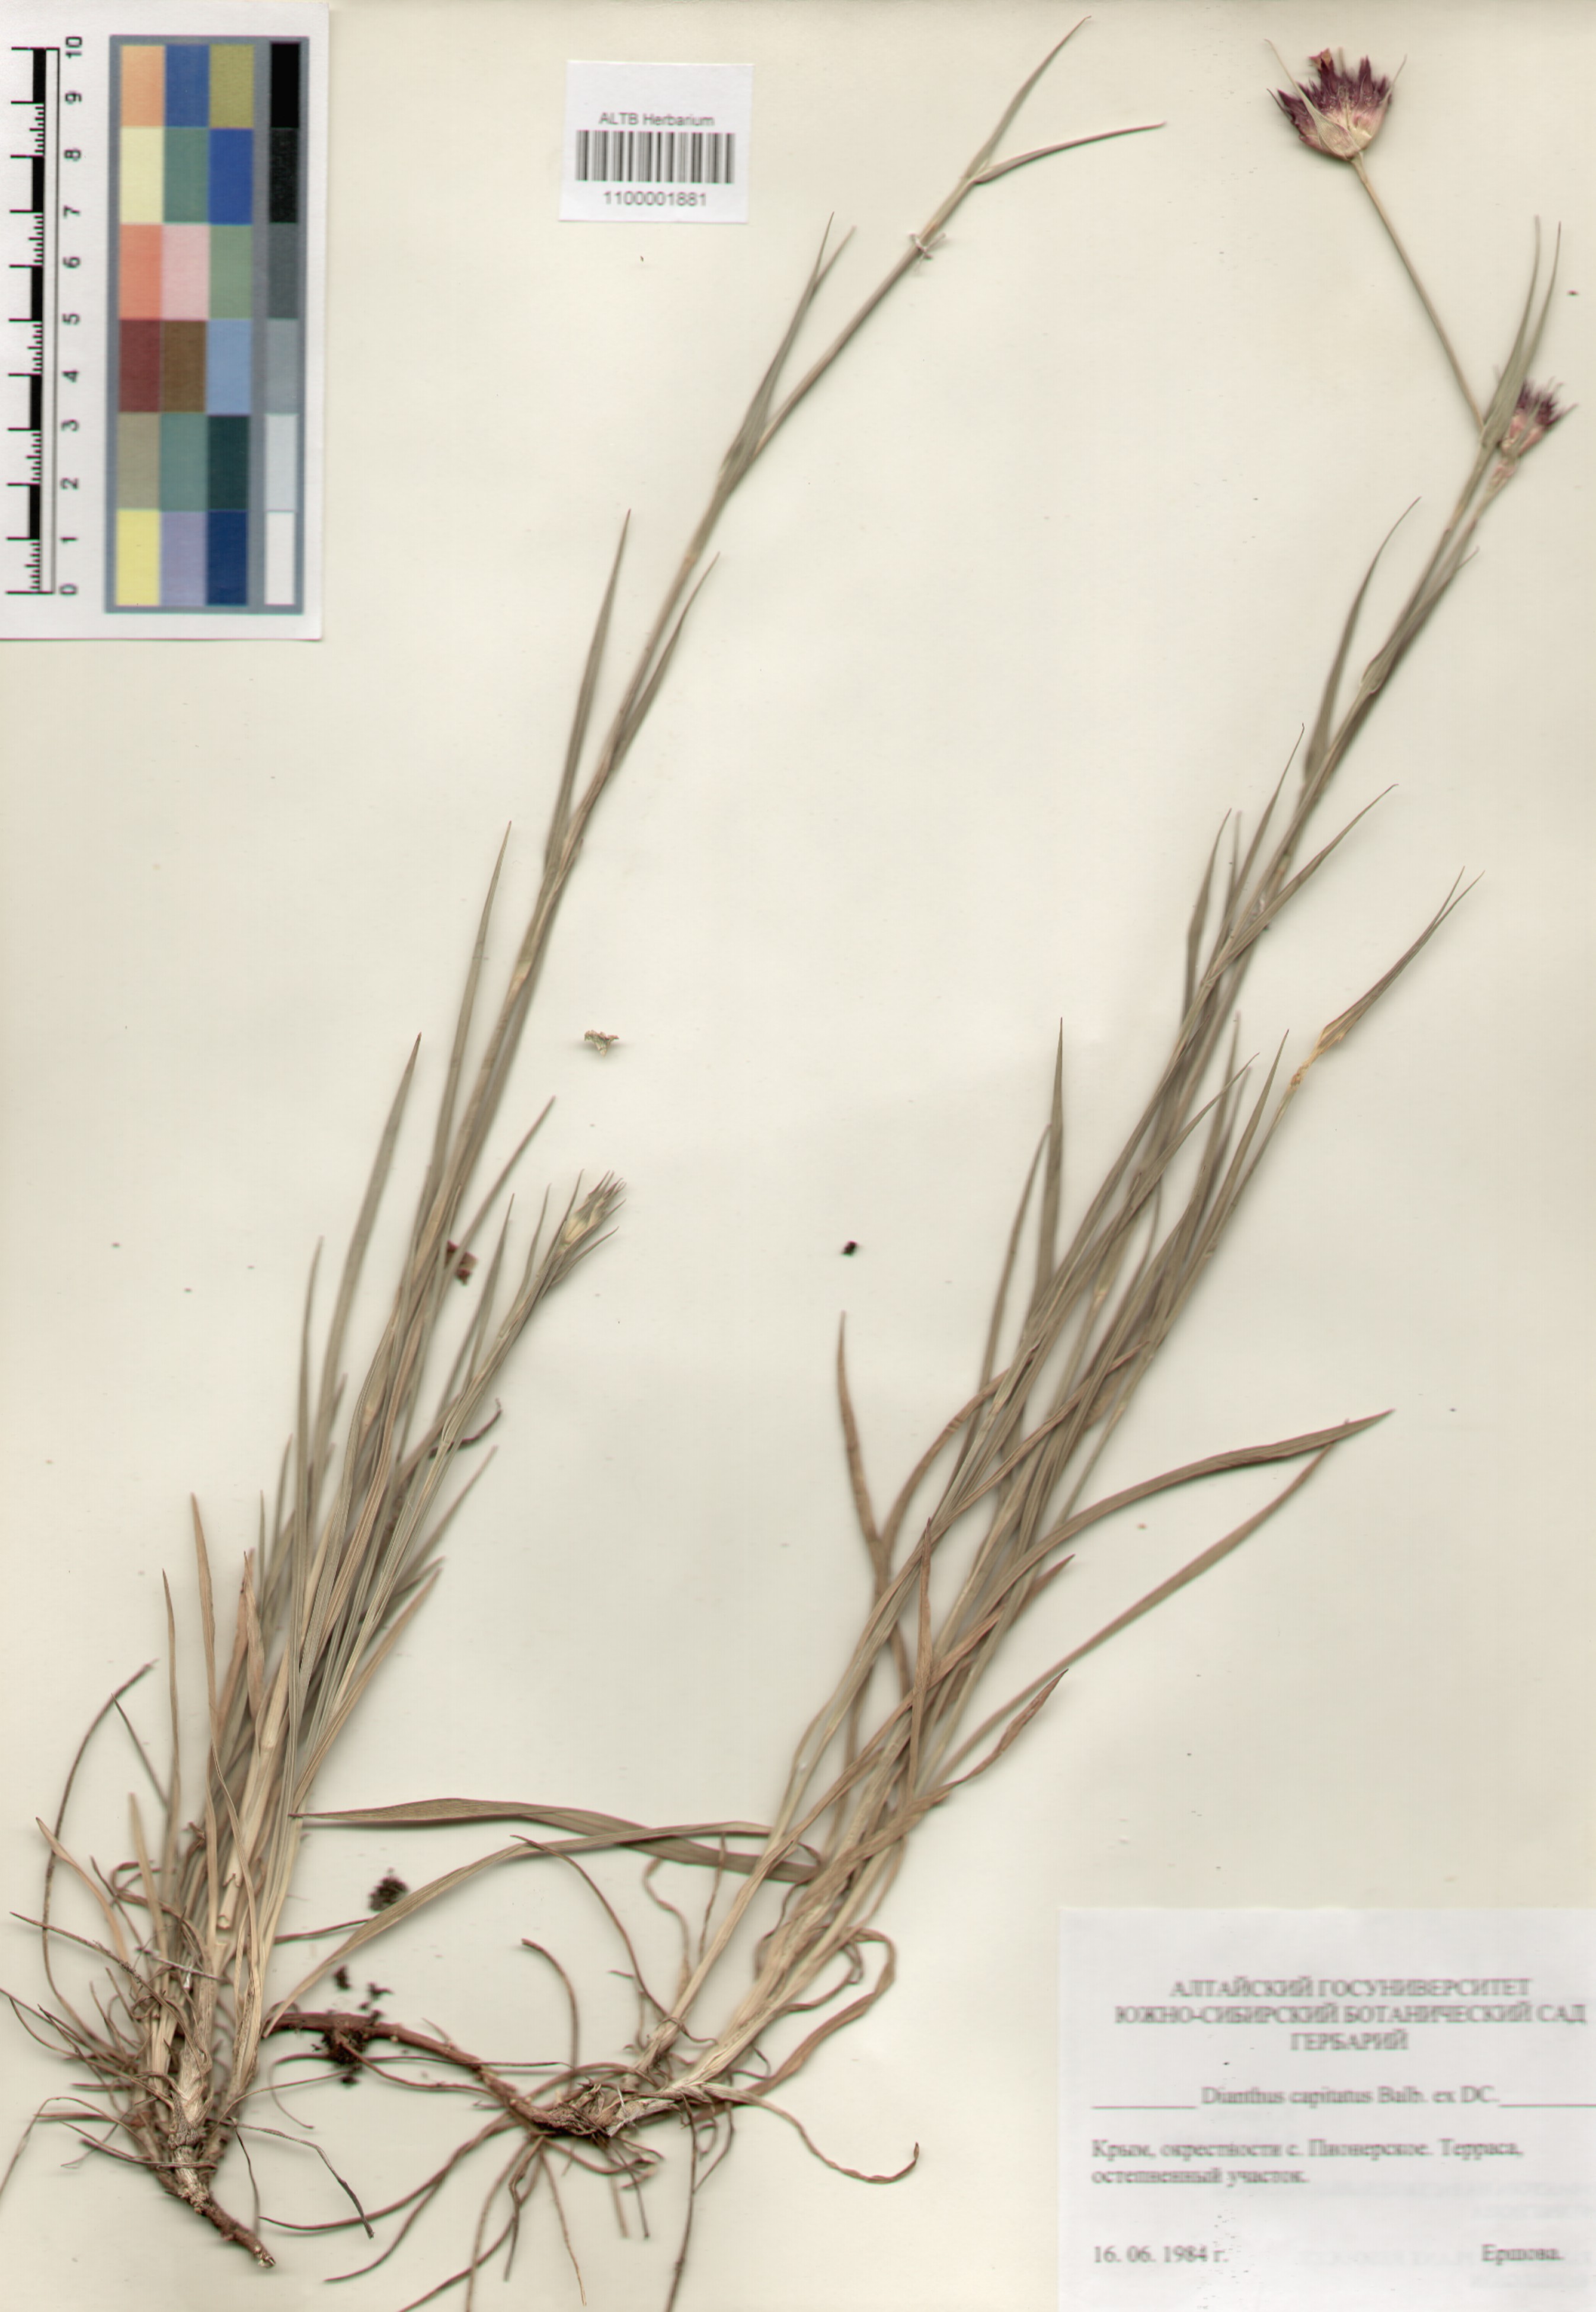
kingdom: Plantae
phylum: Tracheophyta
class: Magnoliopsida
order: Caryophyllales
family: Caryophyllaceae
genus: Dianthus
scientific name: Dianthus capitatus
